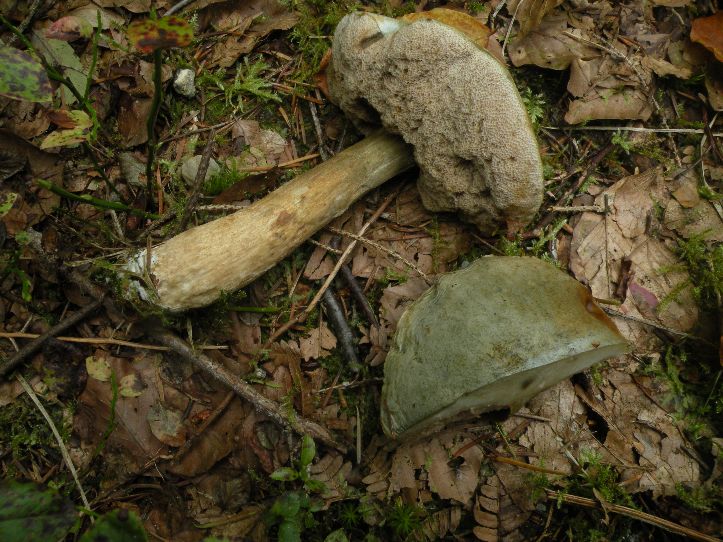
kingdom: Fungi
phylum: Basidiomycota
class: Agaricomycetes
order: Boletales
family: Boletaceae
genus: Leccinum
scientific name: Leccinum scabrum
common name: hvid skælrørhat
